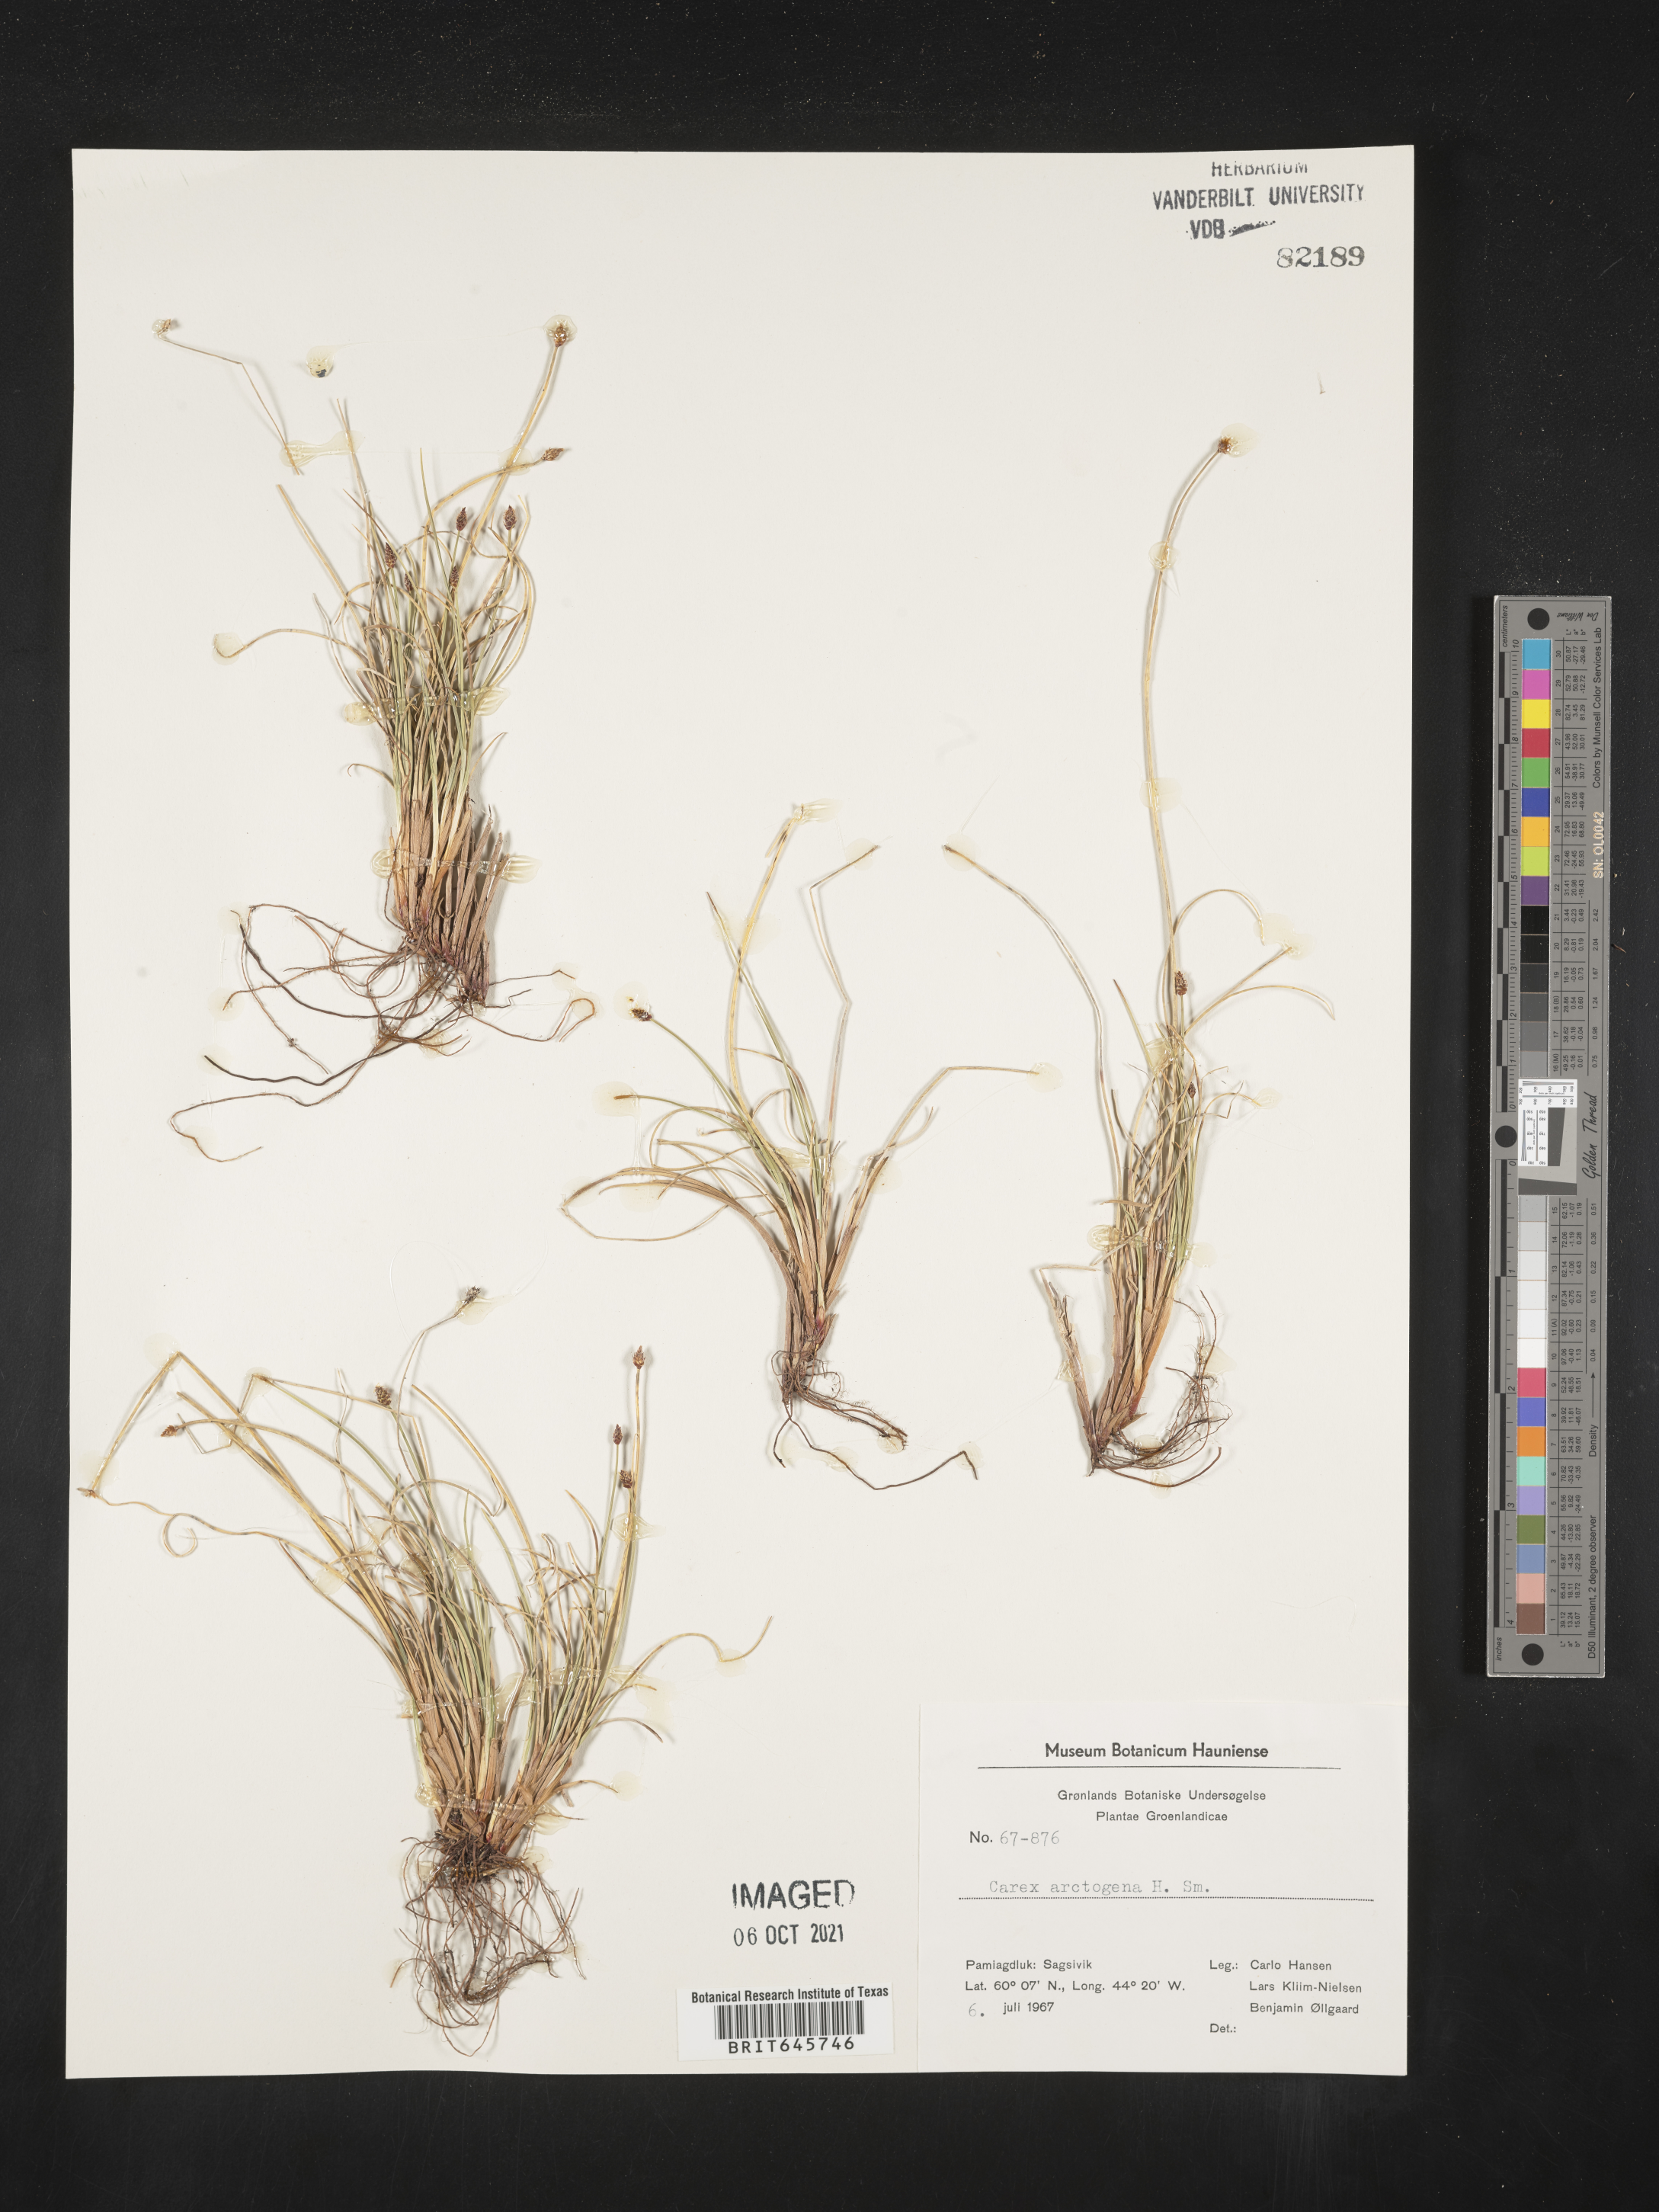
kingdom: Plantae
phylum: Tracheophyta
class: Liliopsida
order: Poales
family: Cyperaceae
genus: Carex
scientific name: Carex arctogena
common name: Black sedge
